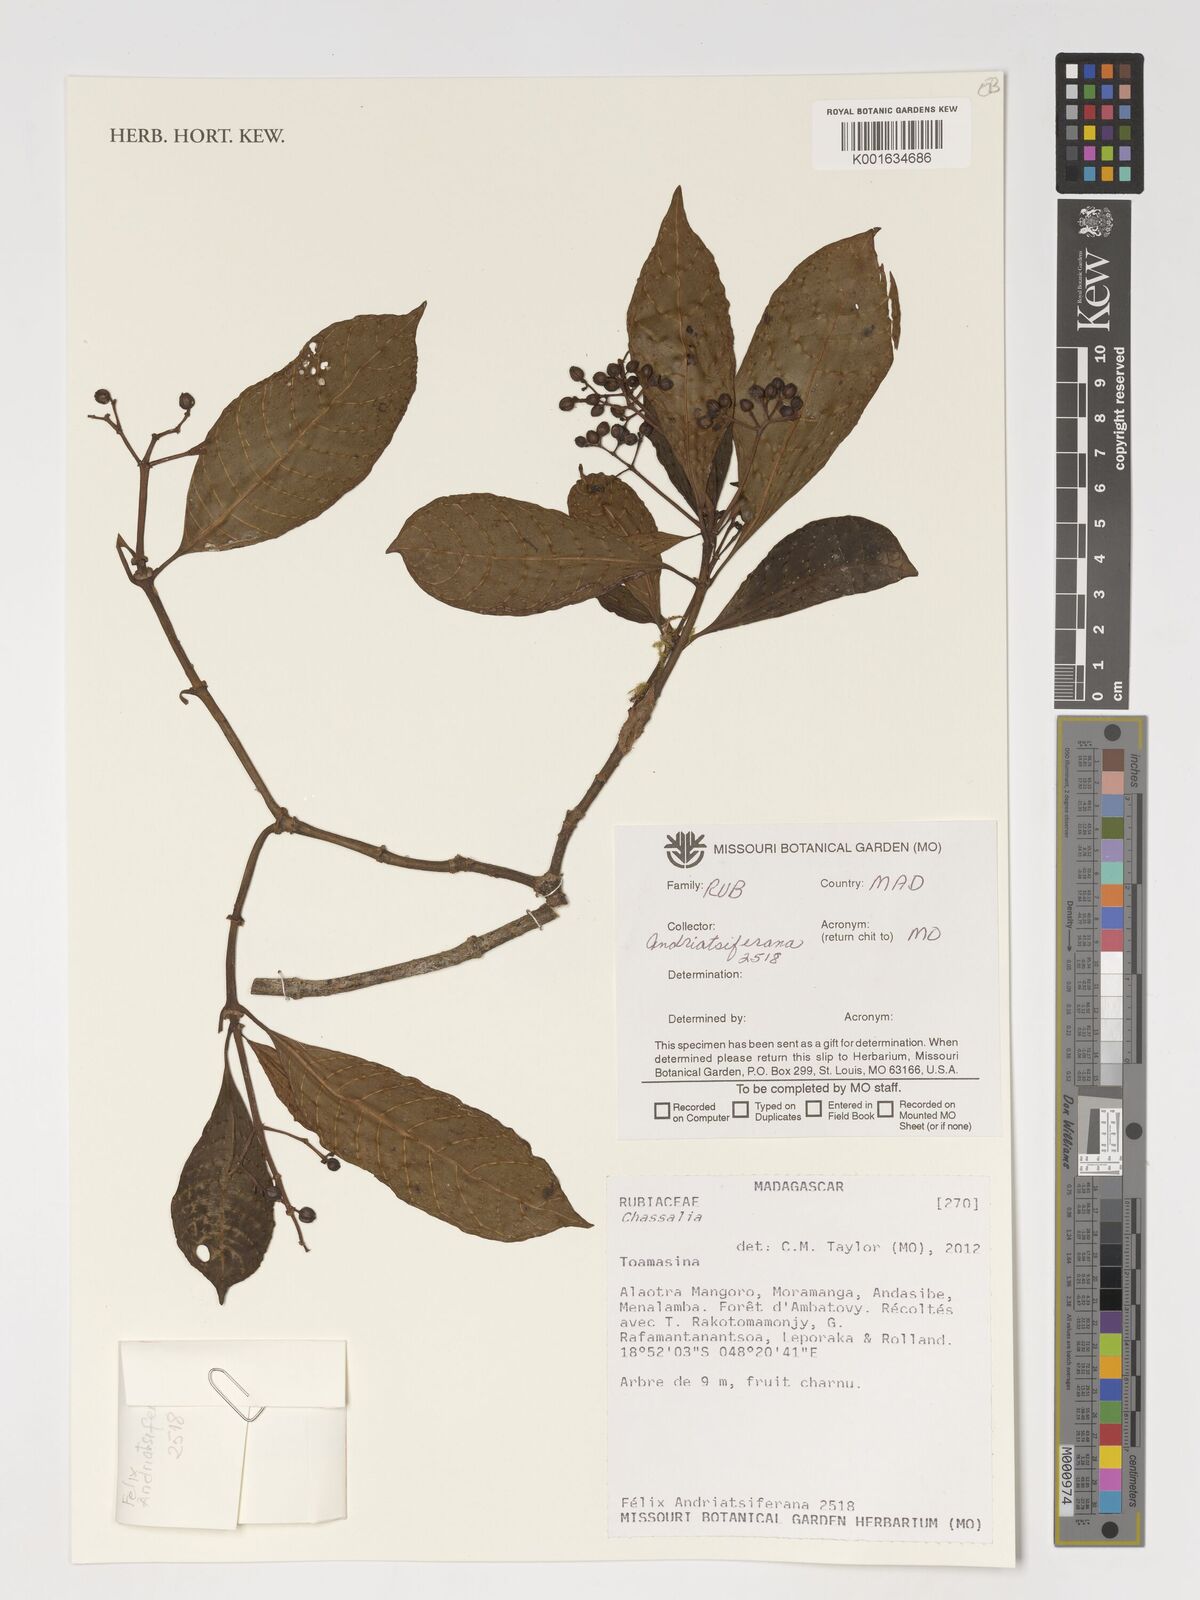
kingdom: Plantae
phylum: Tracheophyta
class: Magnoliopsida
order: Gentianales
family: Rubiaceae
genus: Chassalia
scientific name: Chassalia
